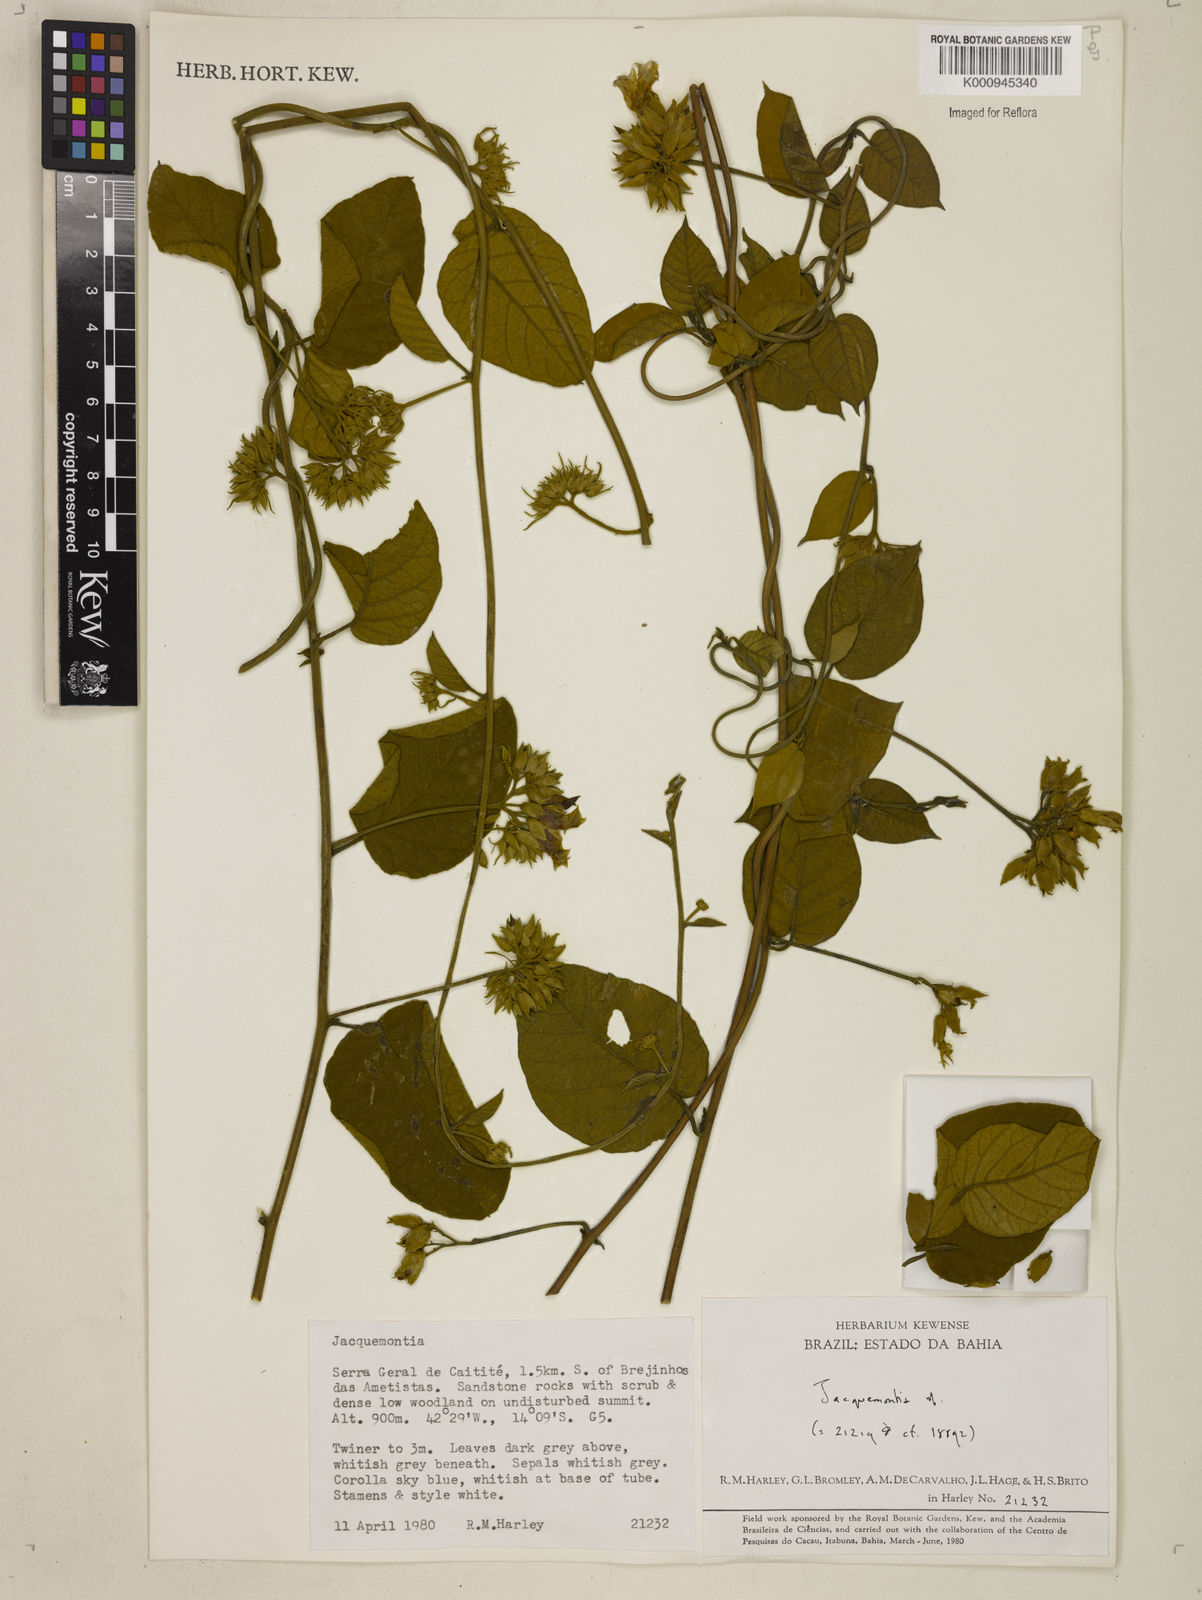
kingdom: Plantae
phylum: Tracheophyta
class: Magnoliopsida
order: Solanales
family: Convolvulaceae
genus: Jacquemontia
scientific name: Jacquemontia
